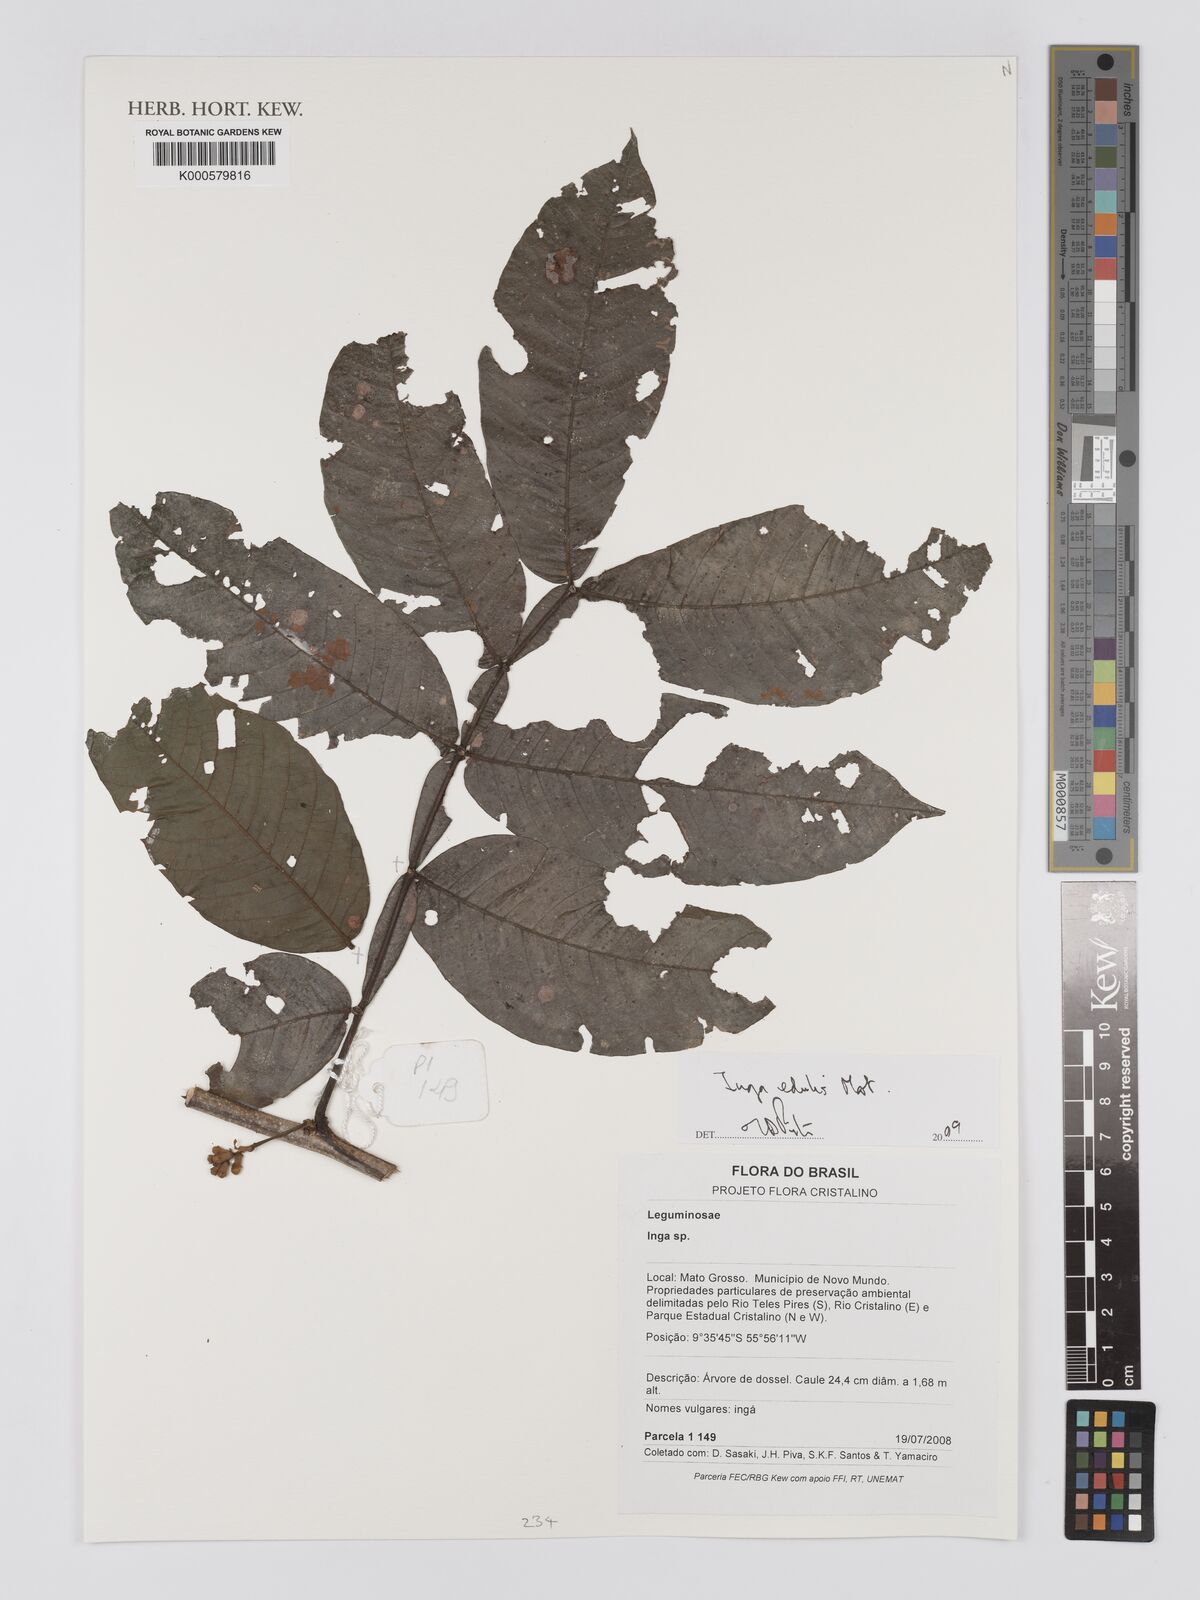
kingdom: Plantae
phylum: Tracheophyta
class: Magnoliopsida
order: Fabales
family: Fabaceae
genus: Inga
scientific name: Inga edulis
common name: Ice cream bean
